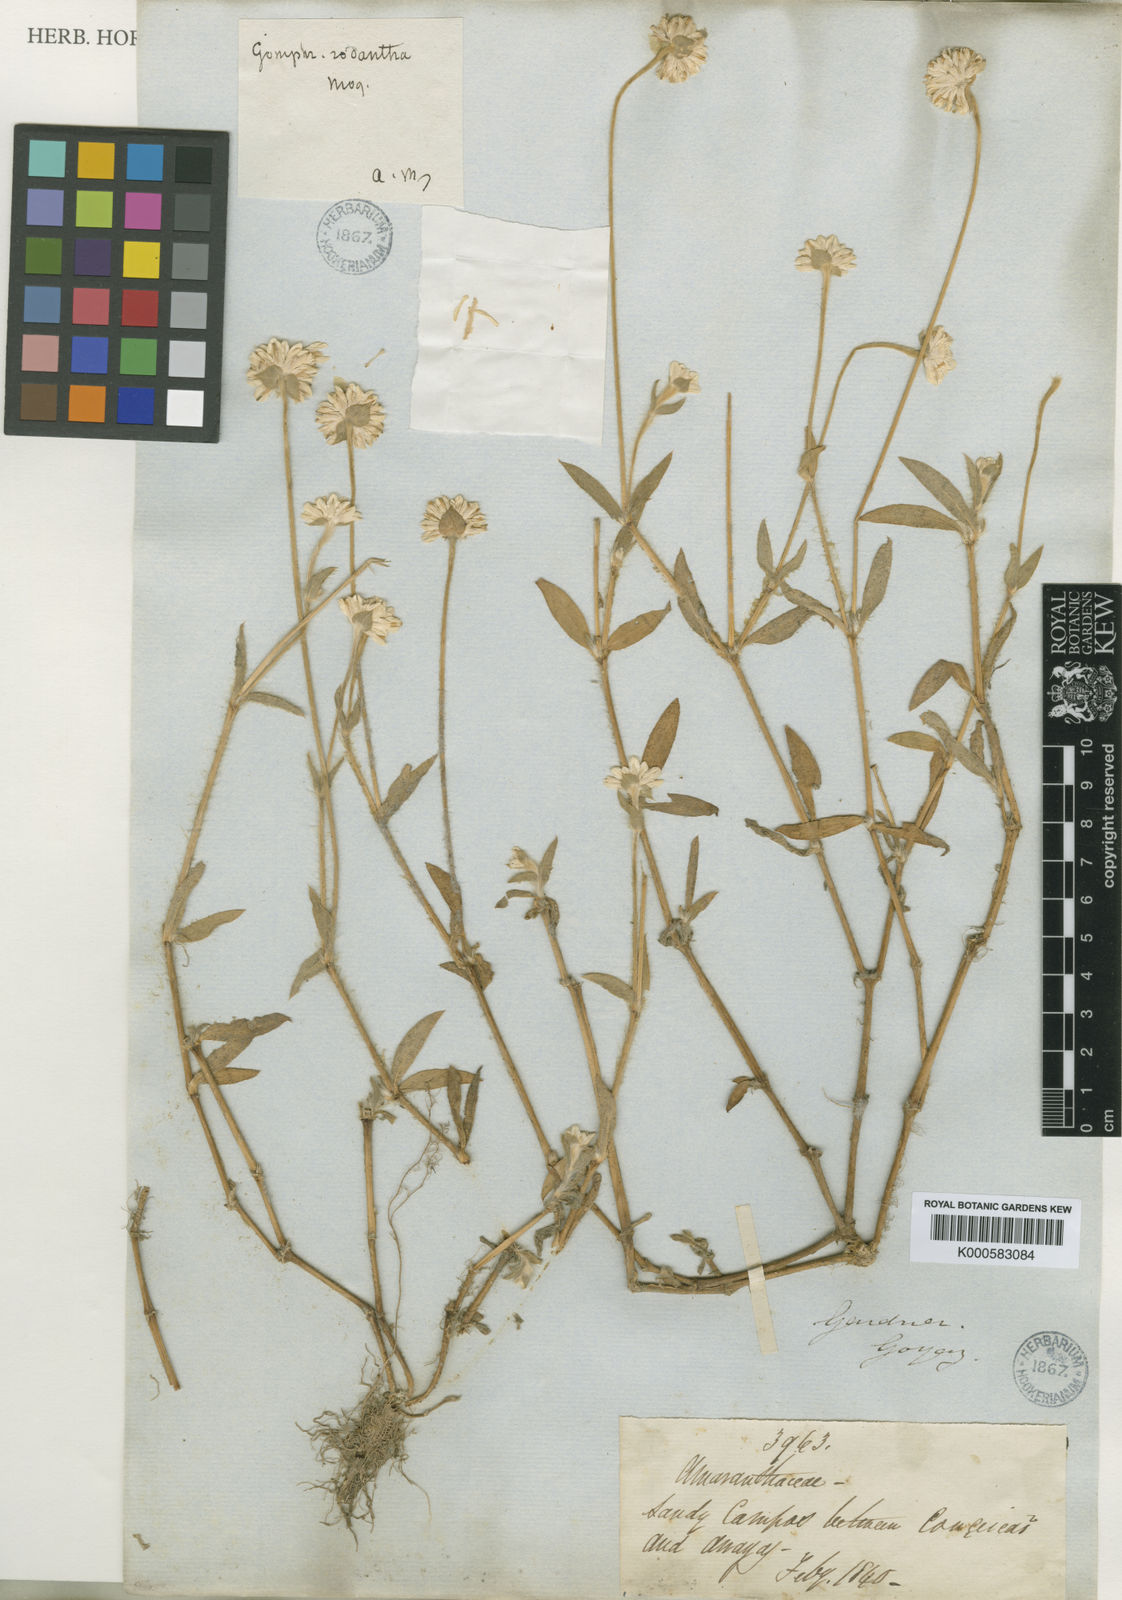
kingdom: Plantae
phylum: Tracheophyta
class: Magnoliopsida
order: Caryophyllales
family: Amaranthaceae
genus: Gomphrena
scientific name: Gomphrena
